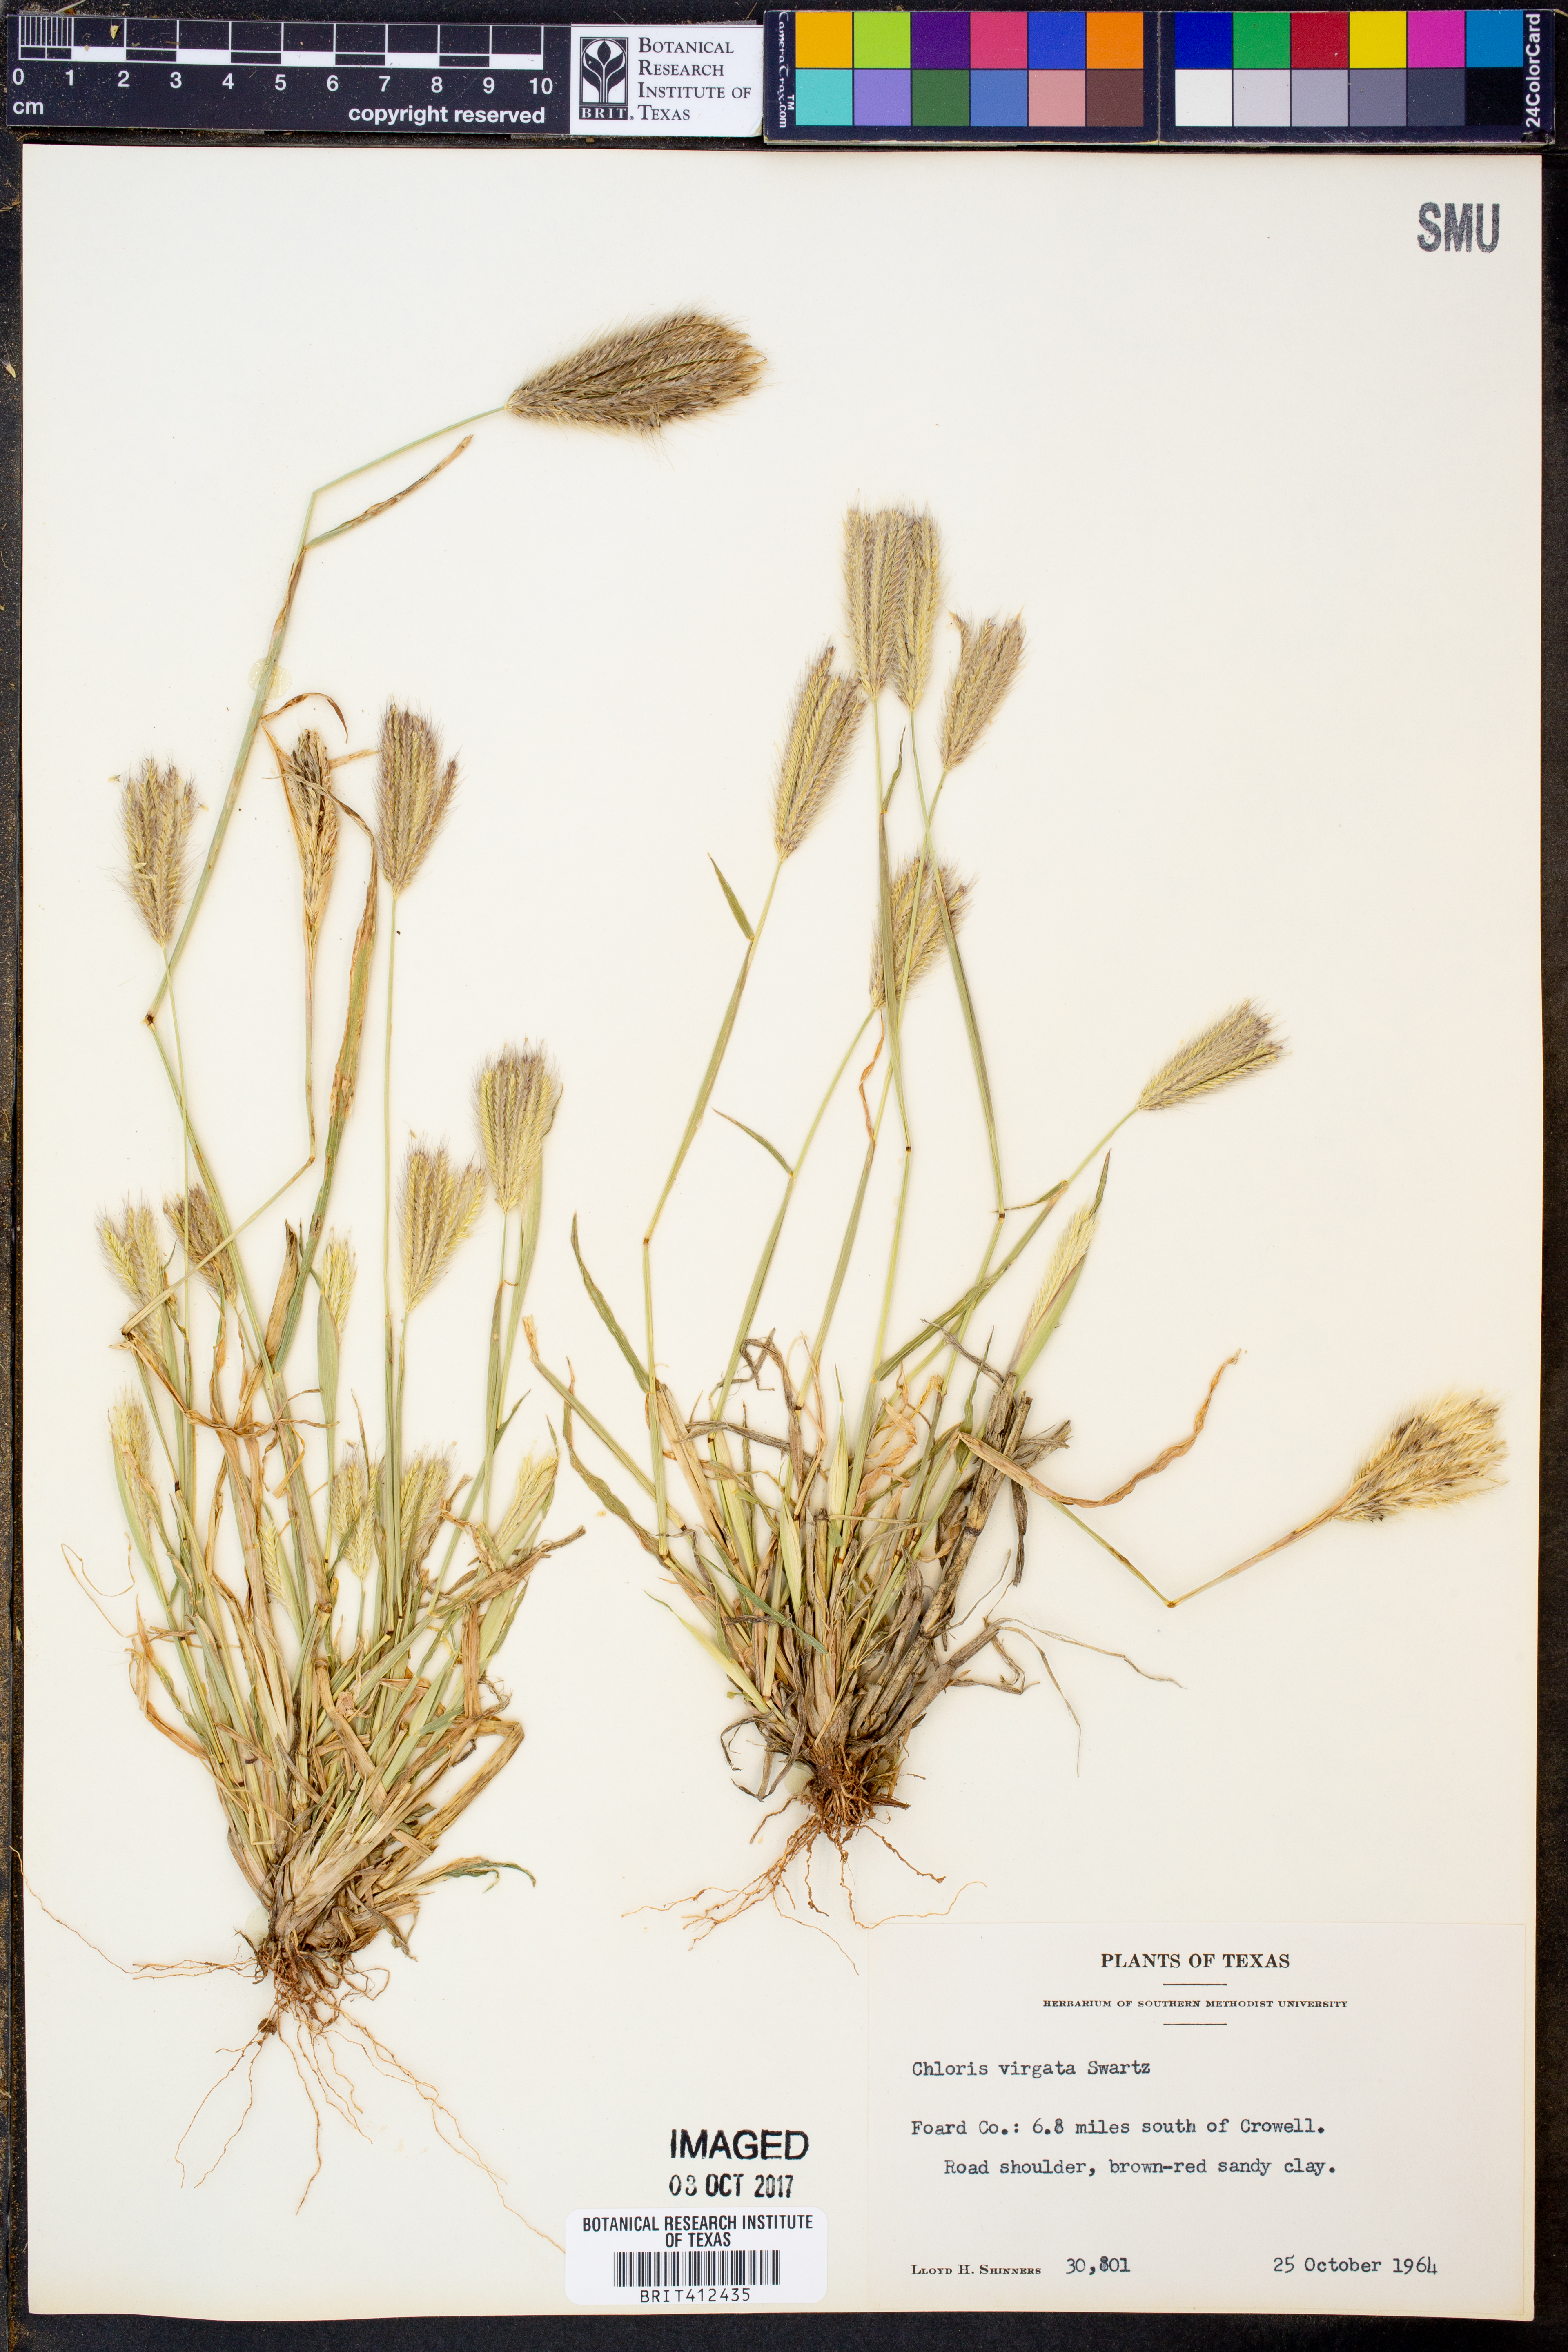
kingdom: Plantae
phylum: Tracheophyta
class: Liliopsida
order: Poales
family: Poaceae
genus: Chloris
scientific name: Chloris virgata
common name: Feathery rhodes-grass
